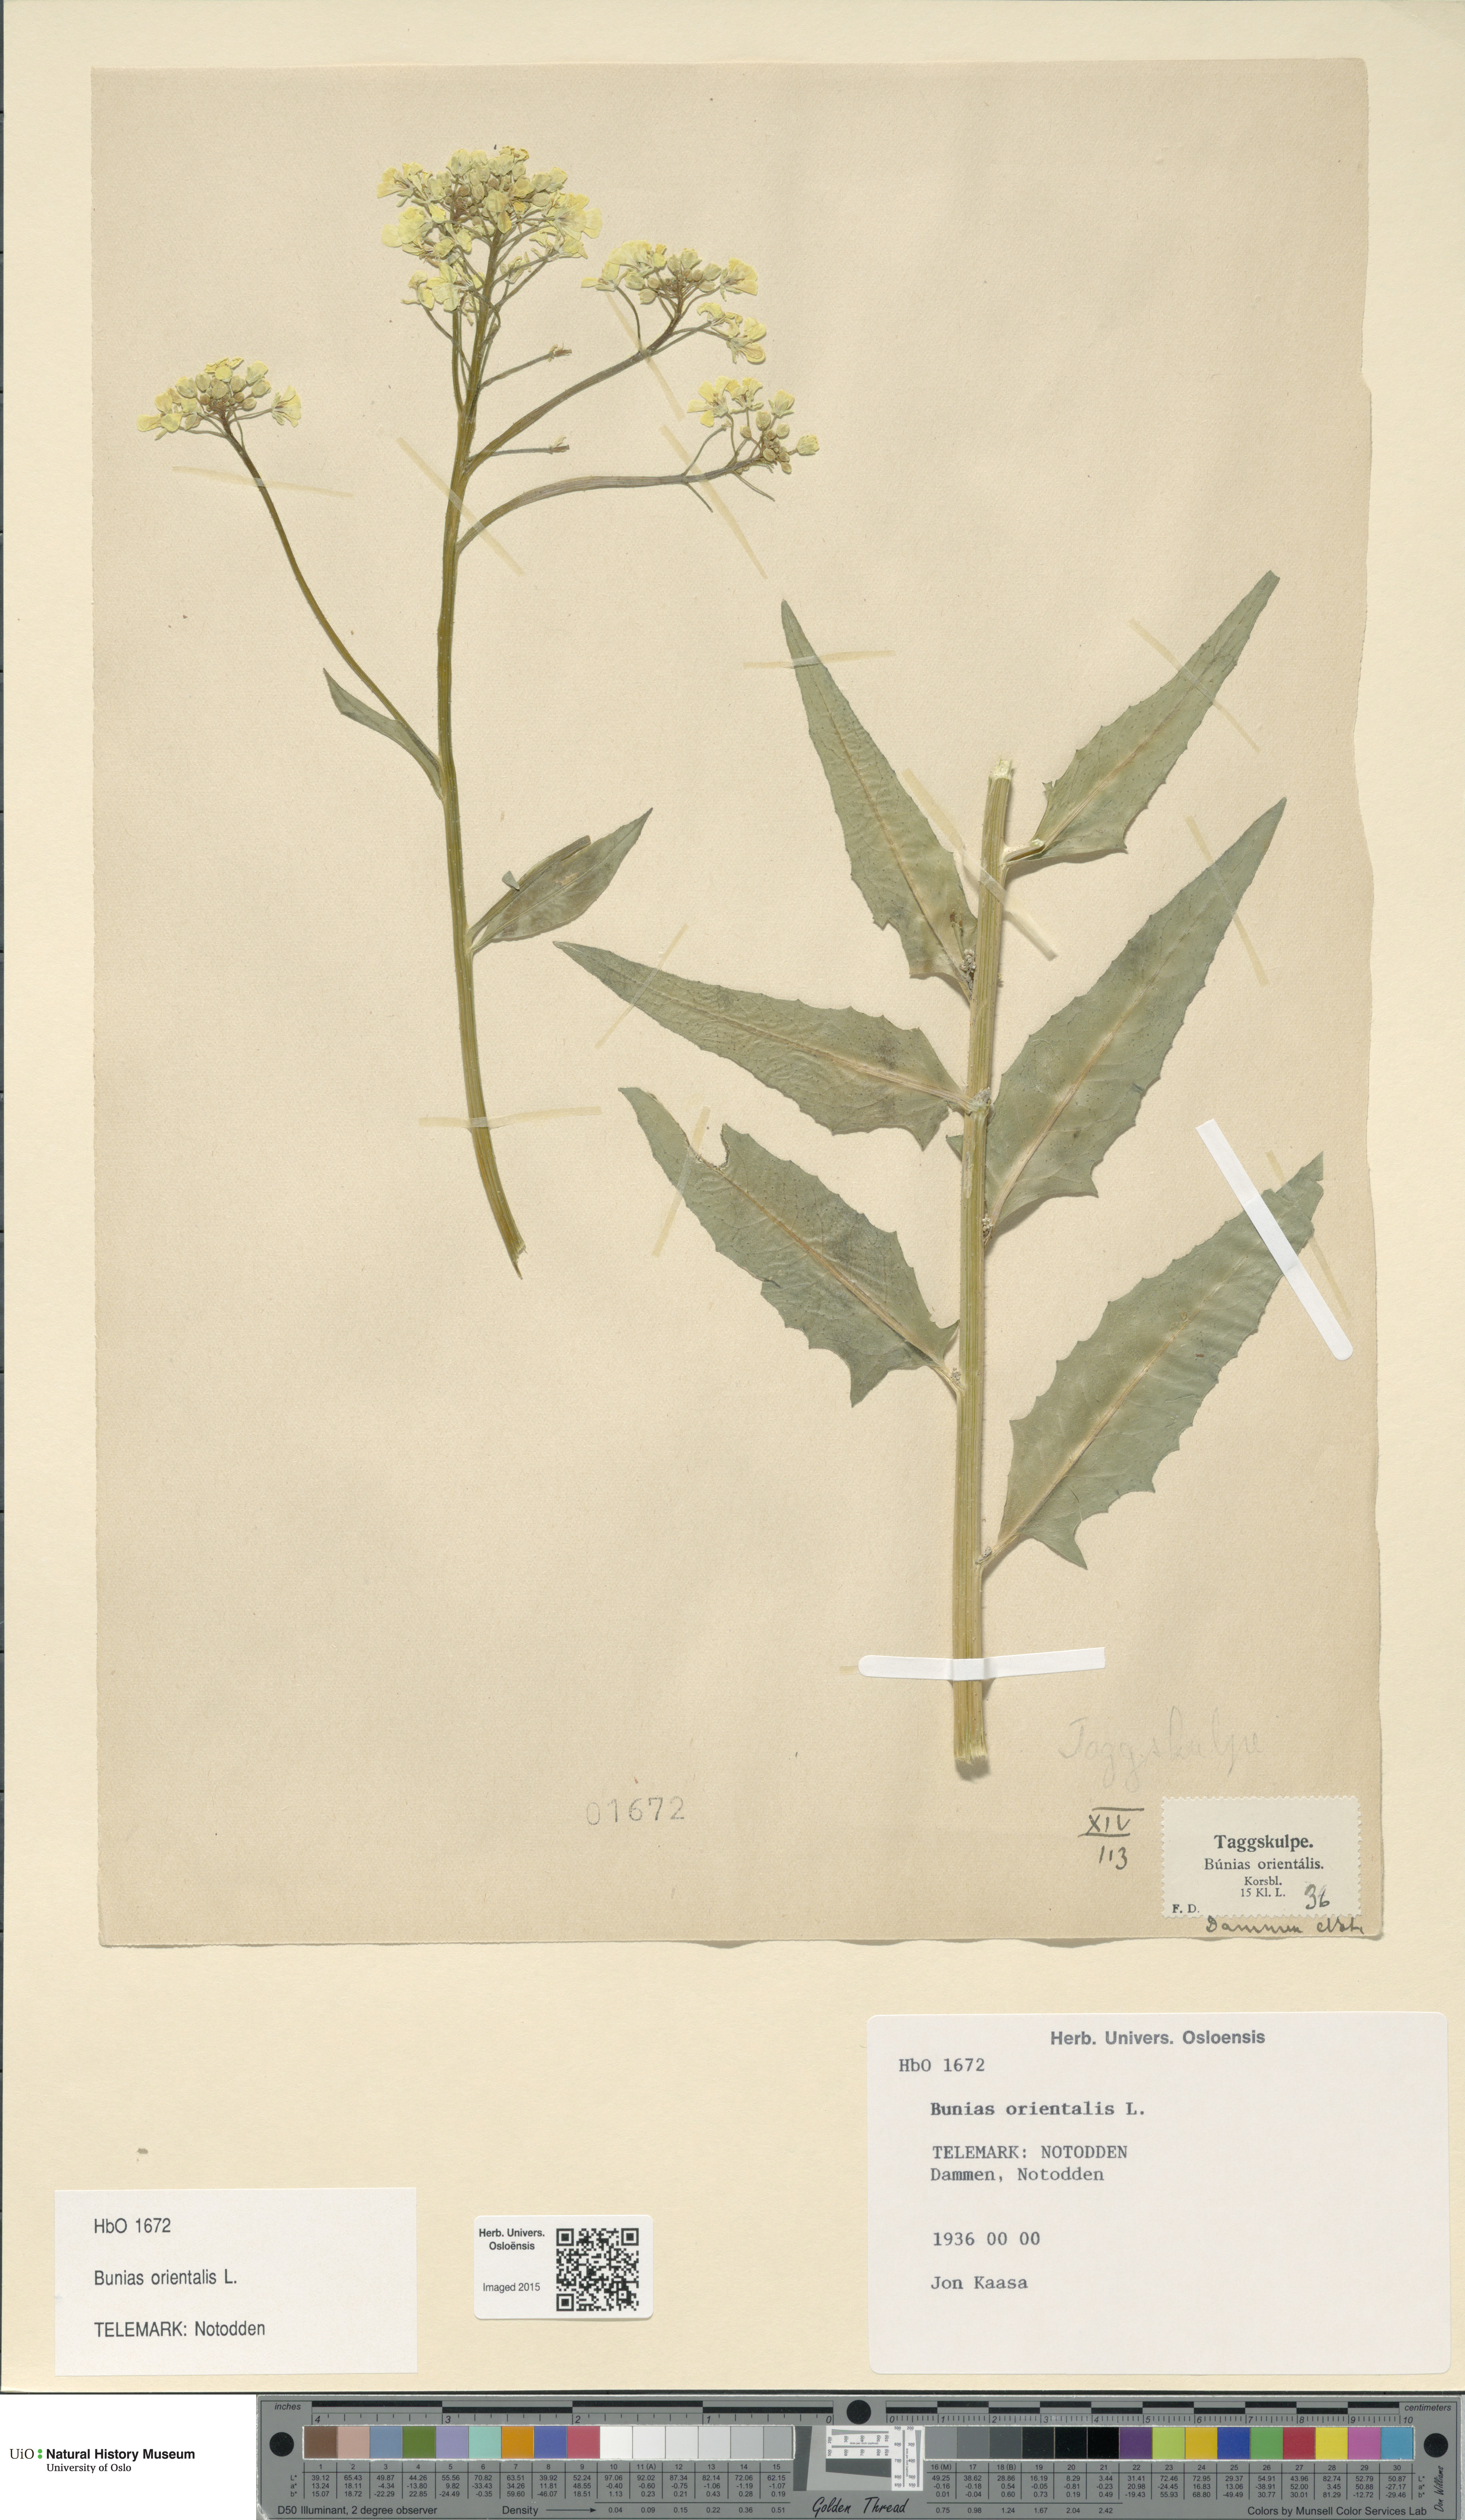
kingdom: Plantae
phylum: Tracheophyta
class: Magnoliopsida
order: Brassicales
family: Brassicaceae
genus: Bunias
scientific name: Bunias orientalis
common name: Warty-cabbage
